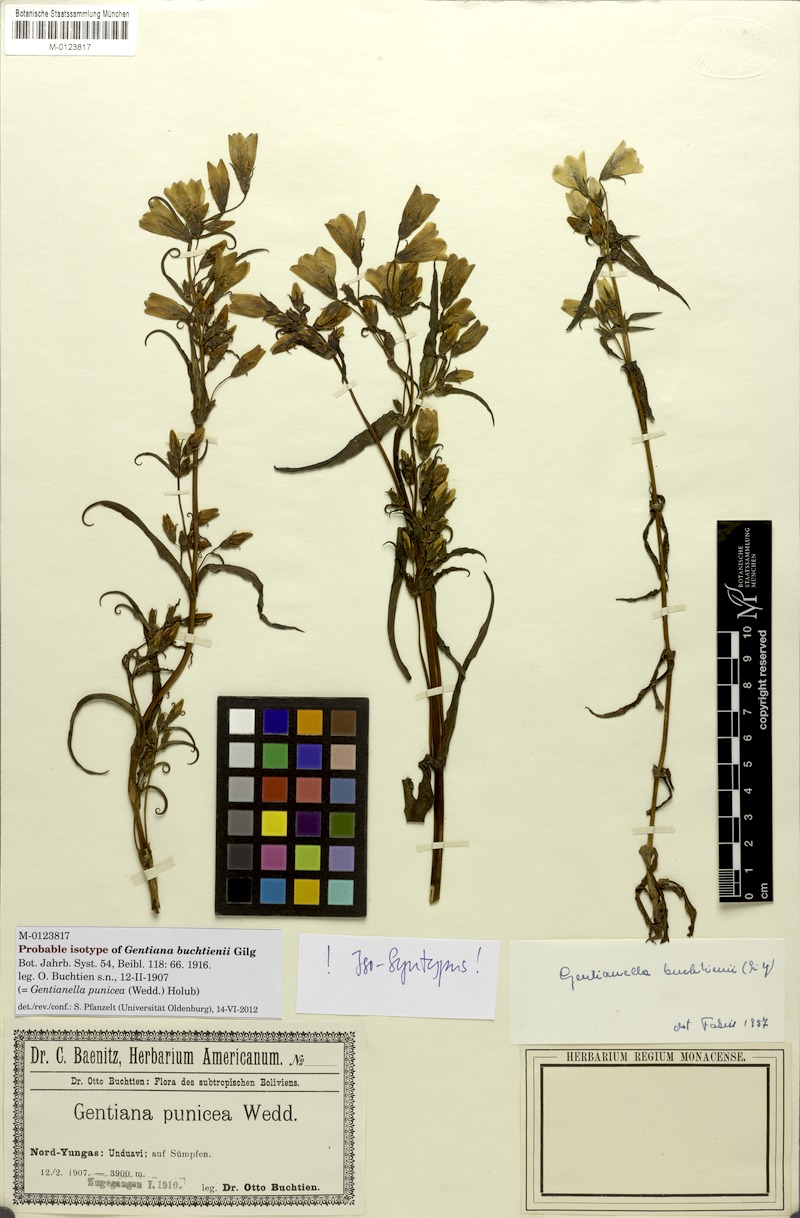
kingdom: Plantae
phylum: Tracheophyta
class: Magnoliopsida
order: Gentianales
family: Gentianaceae
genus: Gentianella
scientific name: Gentianella punicea
